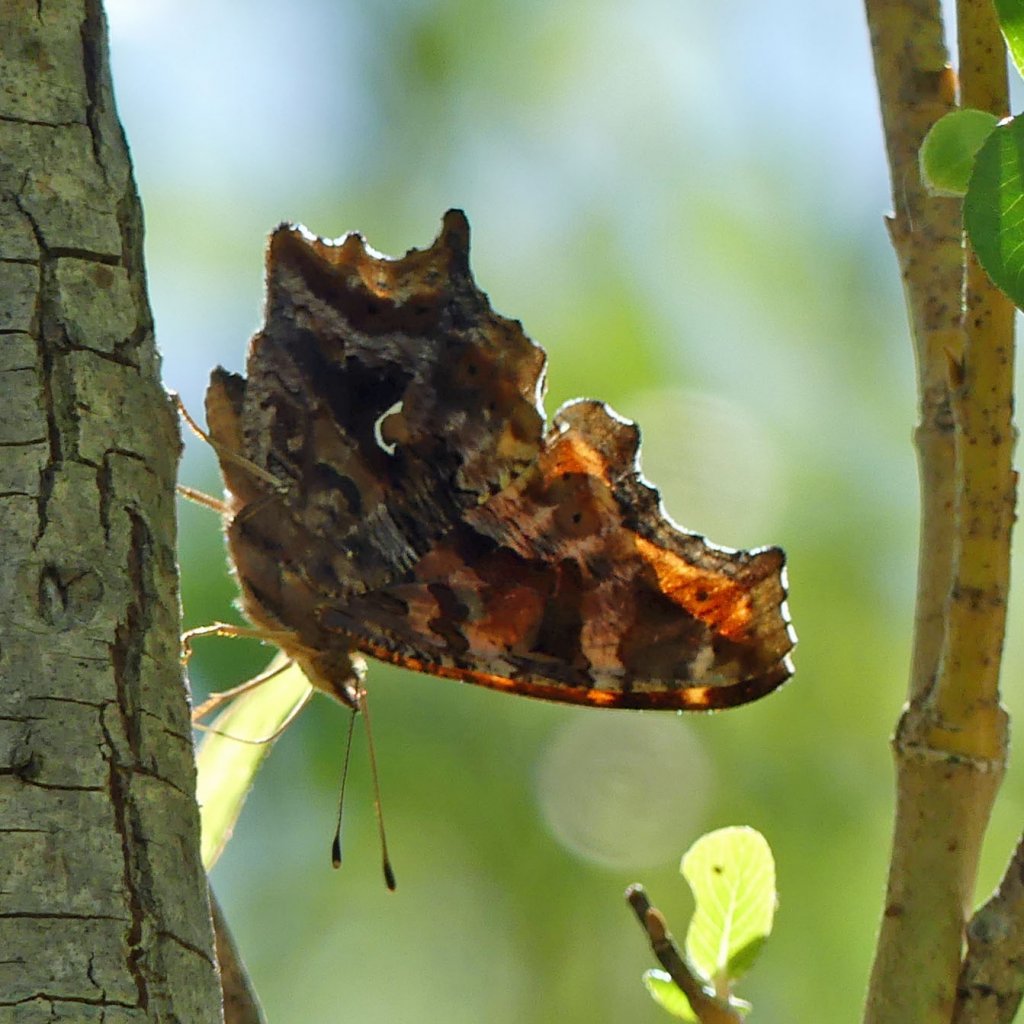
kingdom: Animalia
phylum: Arthropoda
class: Insecta
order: Lepidoptera
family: Nymphalidae
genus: Polygonia
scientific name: Polygonia comma
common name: Eastern Comma
